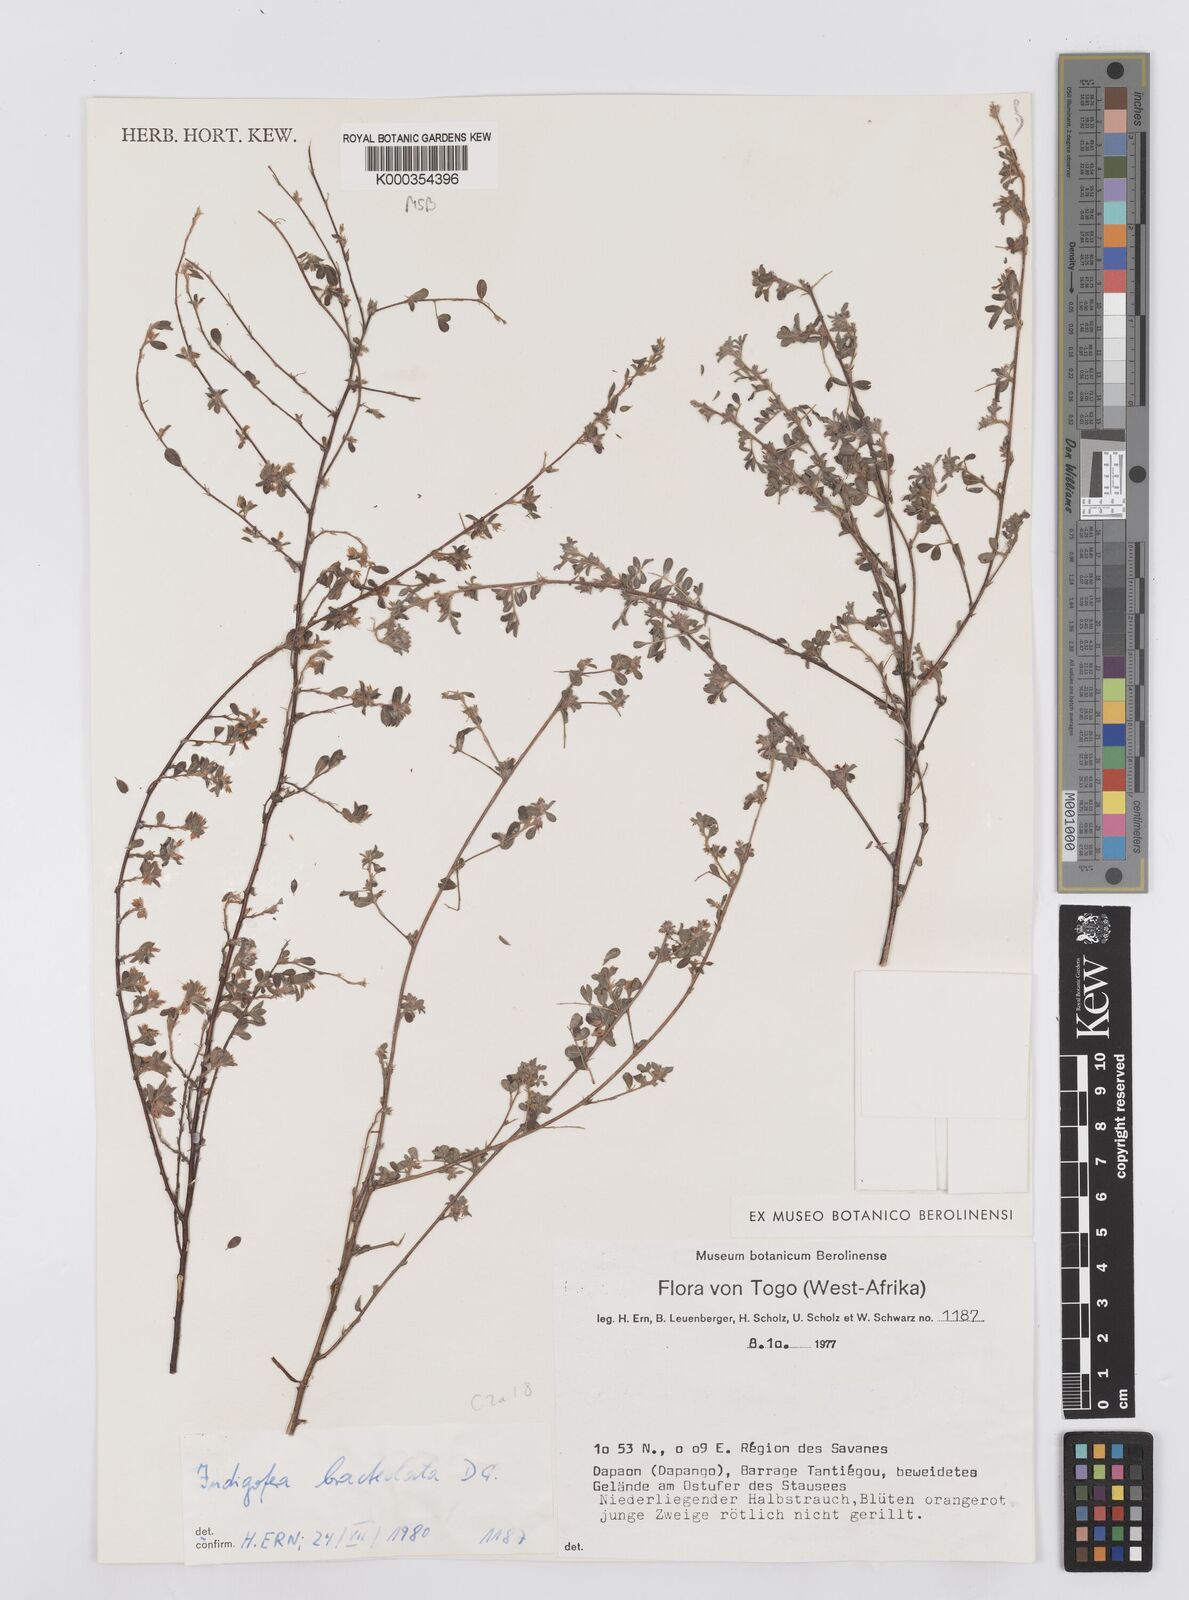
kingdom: Plantae
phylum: Tracheophyta
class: Magnoliopsida
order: Fabales
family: Fabaceae
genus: Indigofera
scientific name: Indigofera bracteolata
